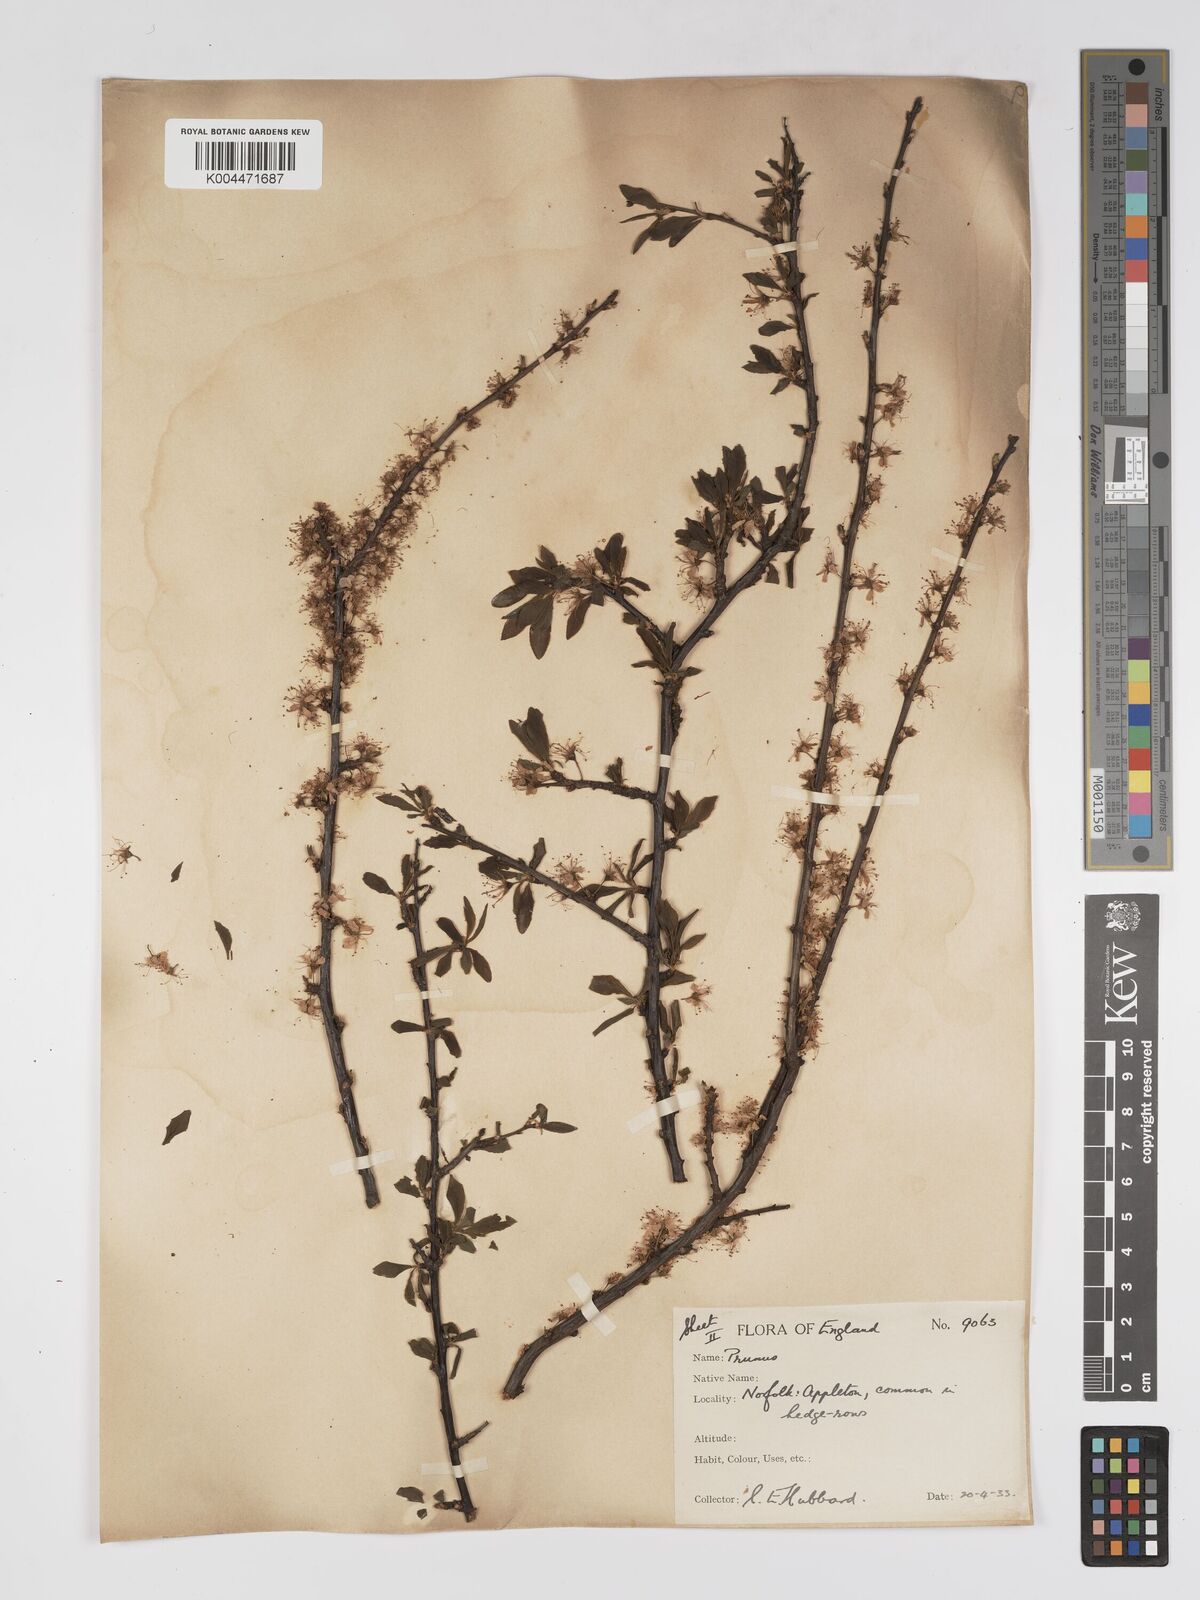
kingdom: Plantae
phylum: Tracheophyta
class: Magnoliopsida
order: Rosales
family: Rosaceae
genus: Prunus
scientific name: Prunus
